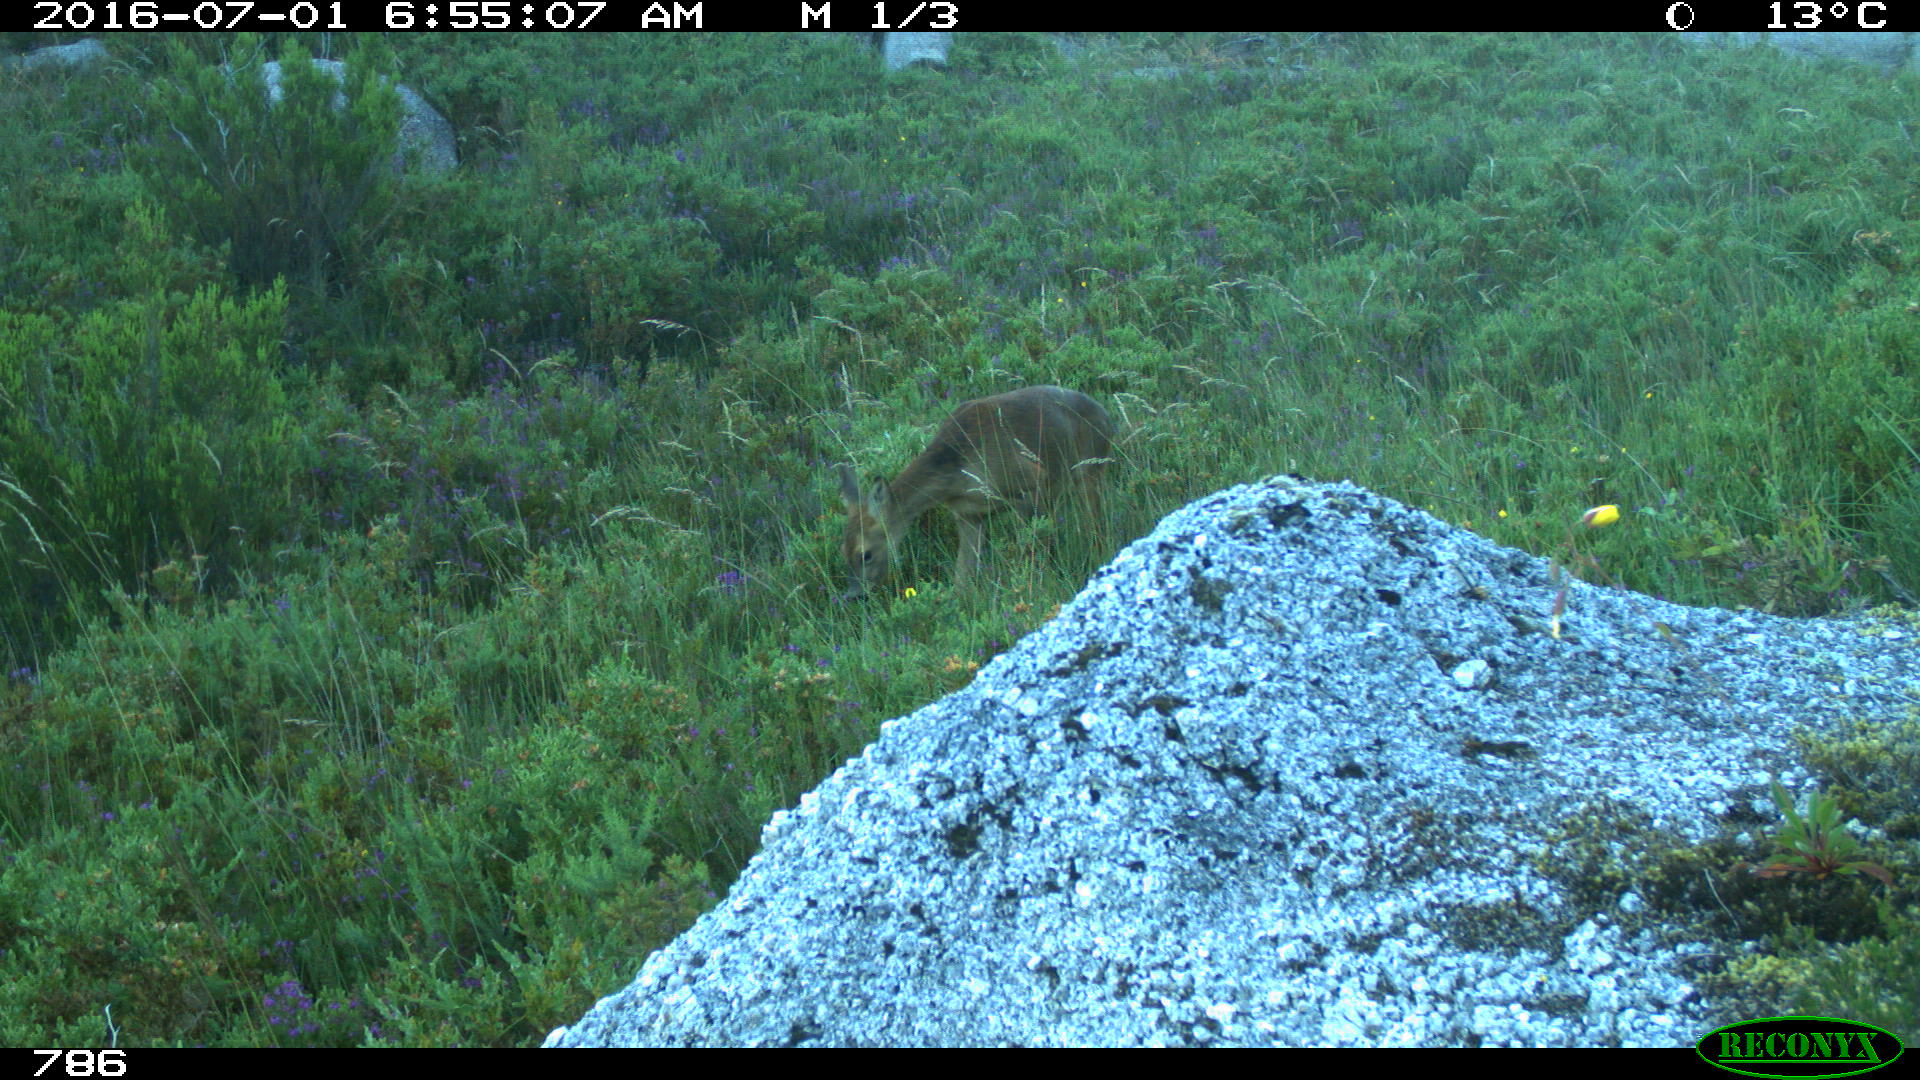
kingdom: Animalia
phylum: Chordata
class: Mammalia
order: Artiodactyla
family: Cervidae
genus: Capreolus
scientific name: Capreolus capreolus
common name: Western roe deer
